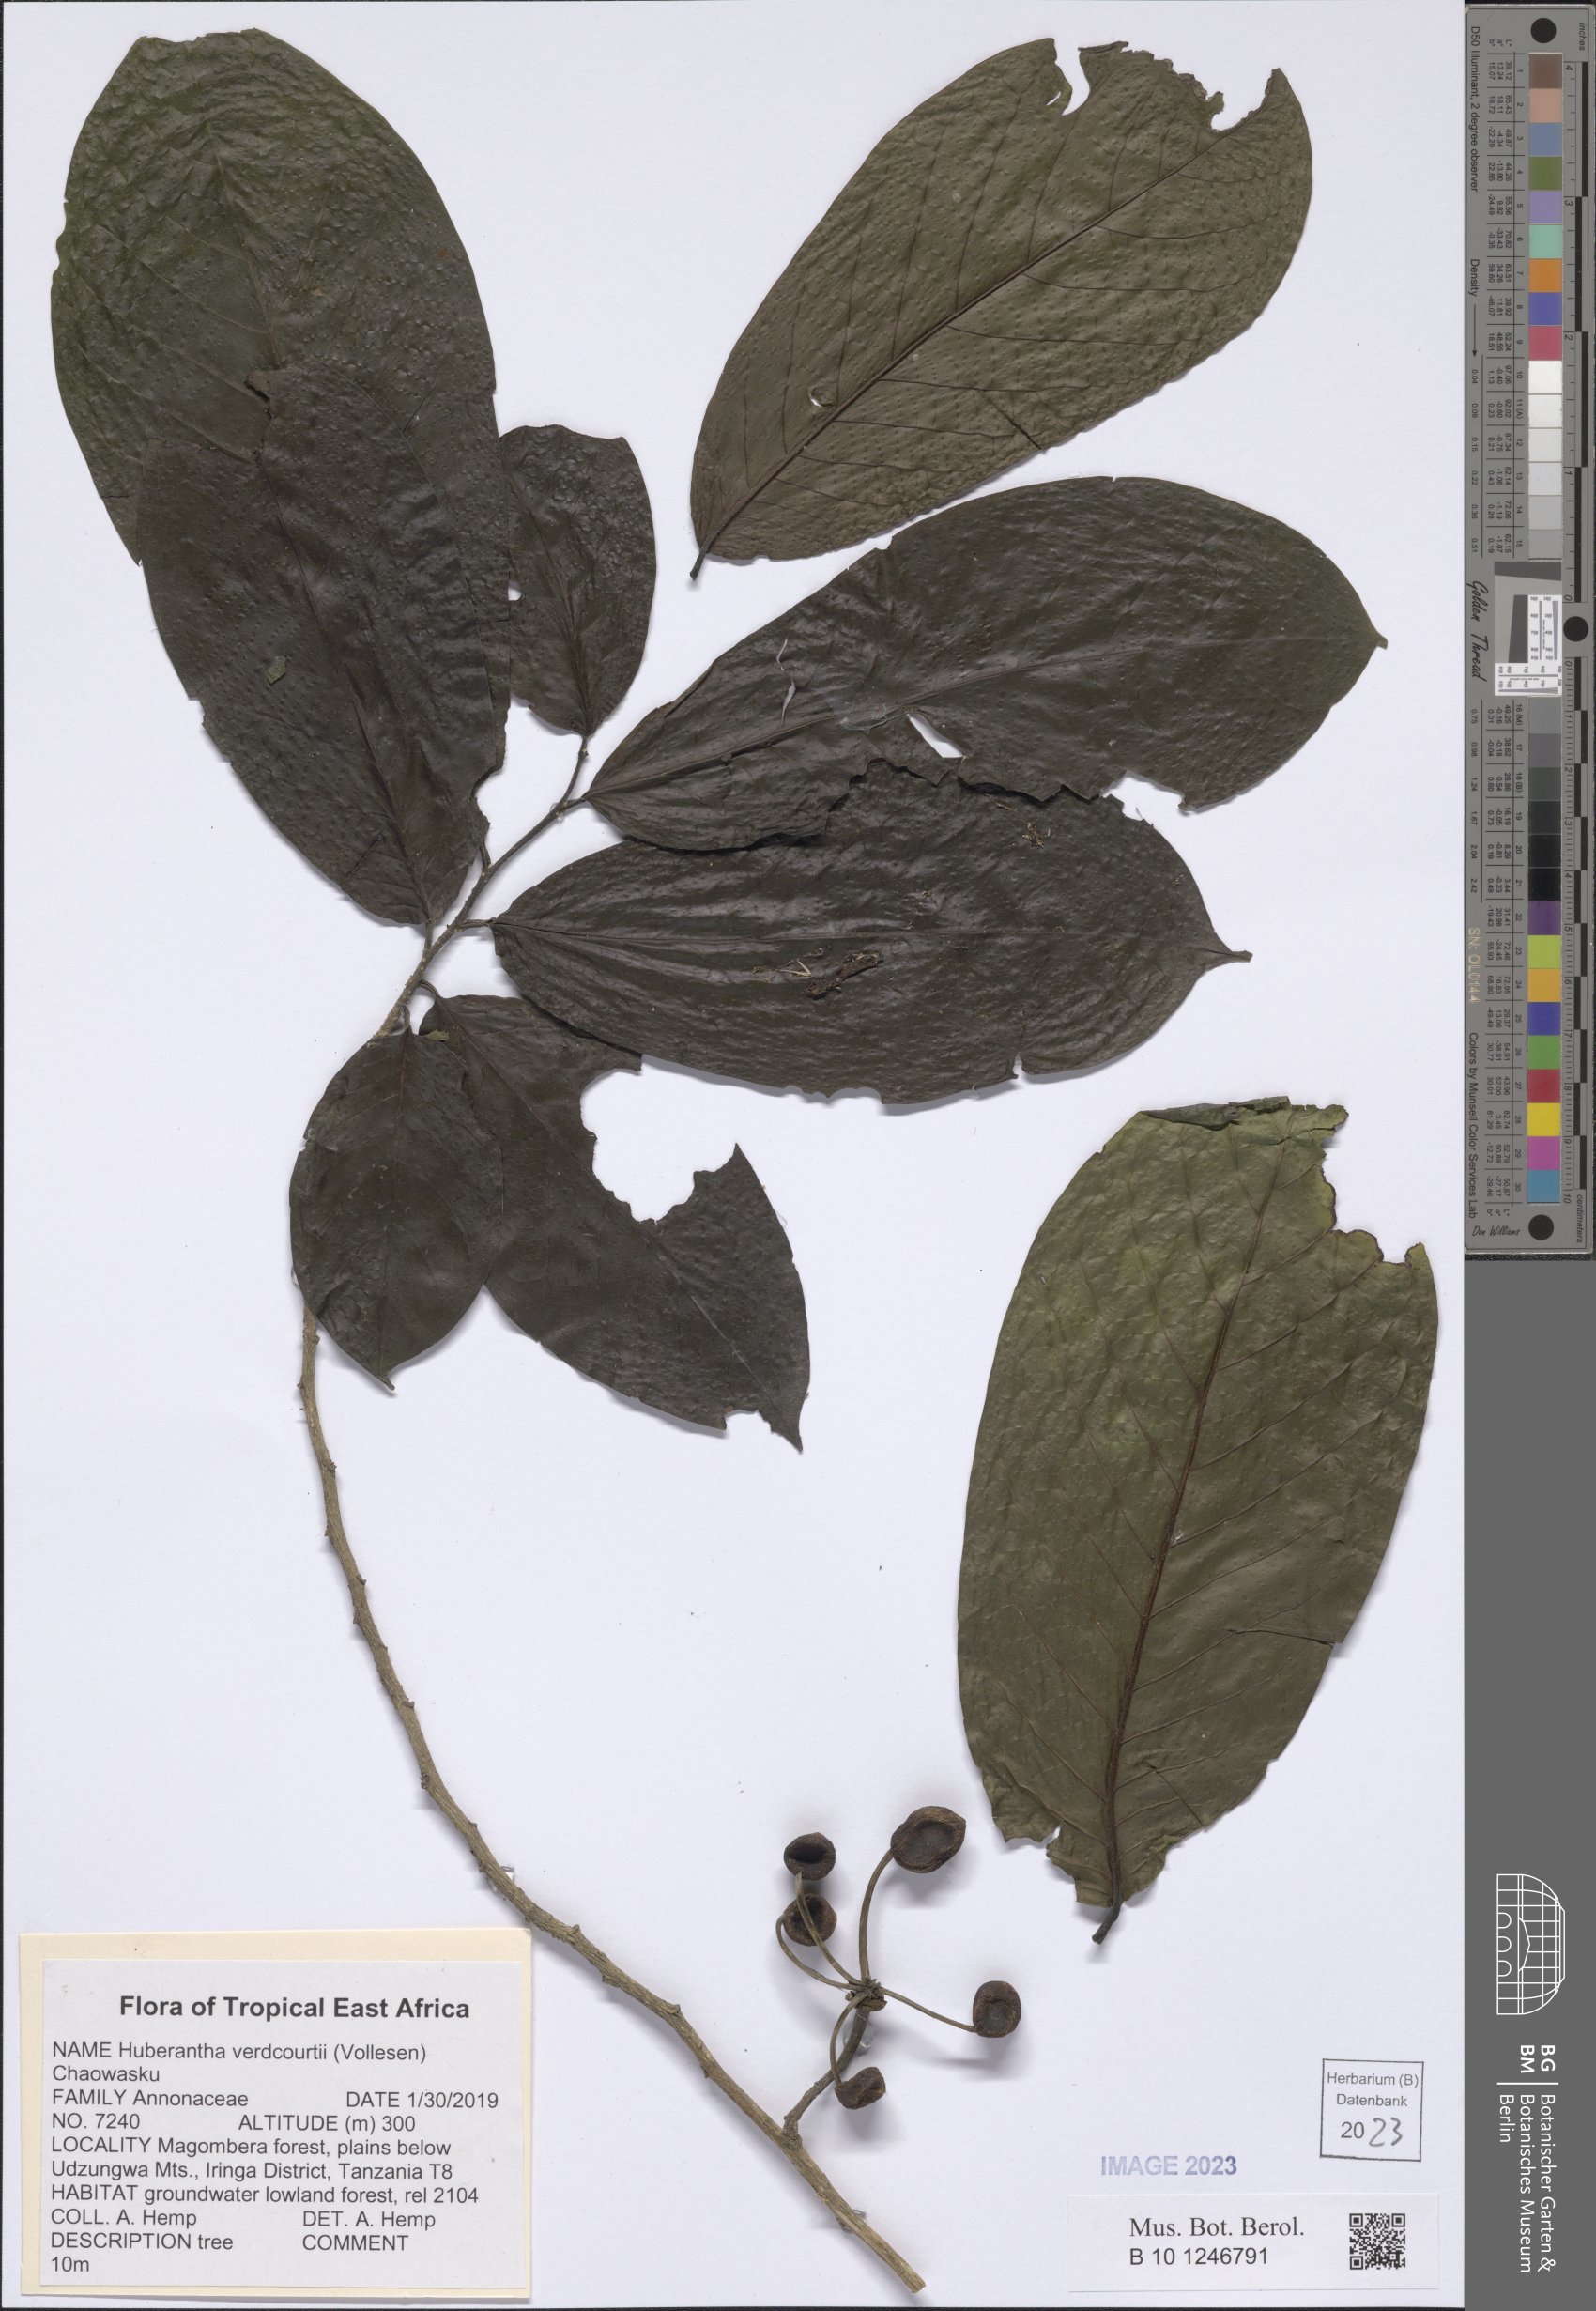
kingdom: Plantae
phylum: Tracheophyta
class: Magnoliopsida
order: Magnoliales
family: Annonaceae
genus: Hubera
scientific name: Hubera verdcourtii
